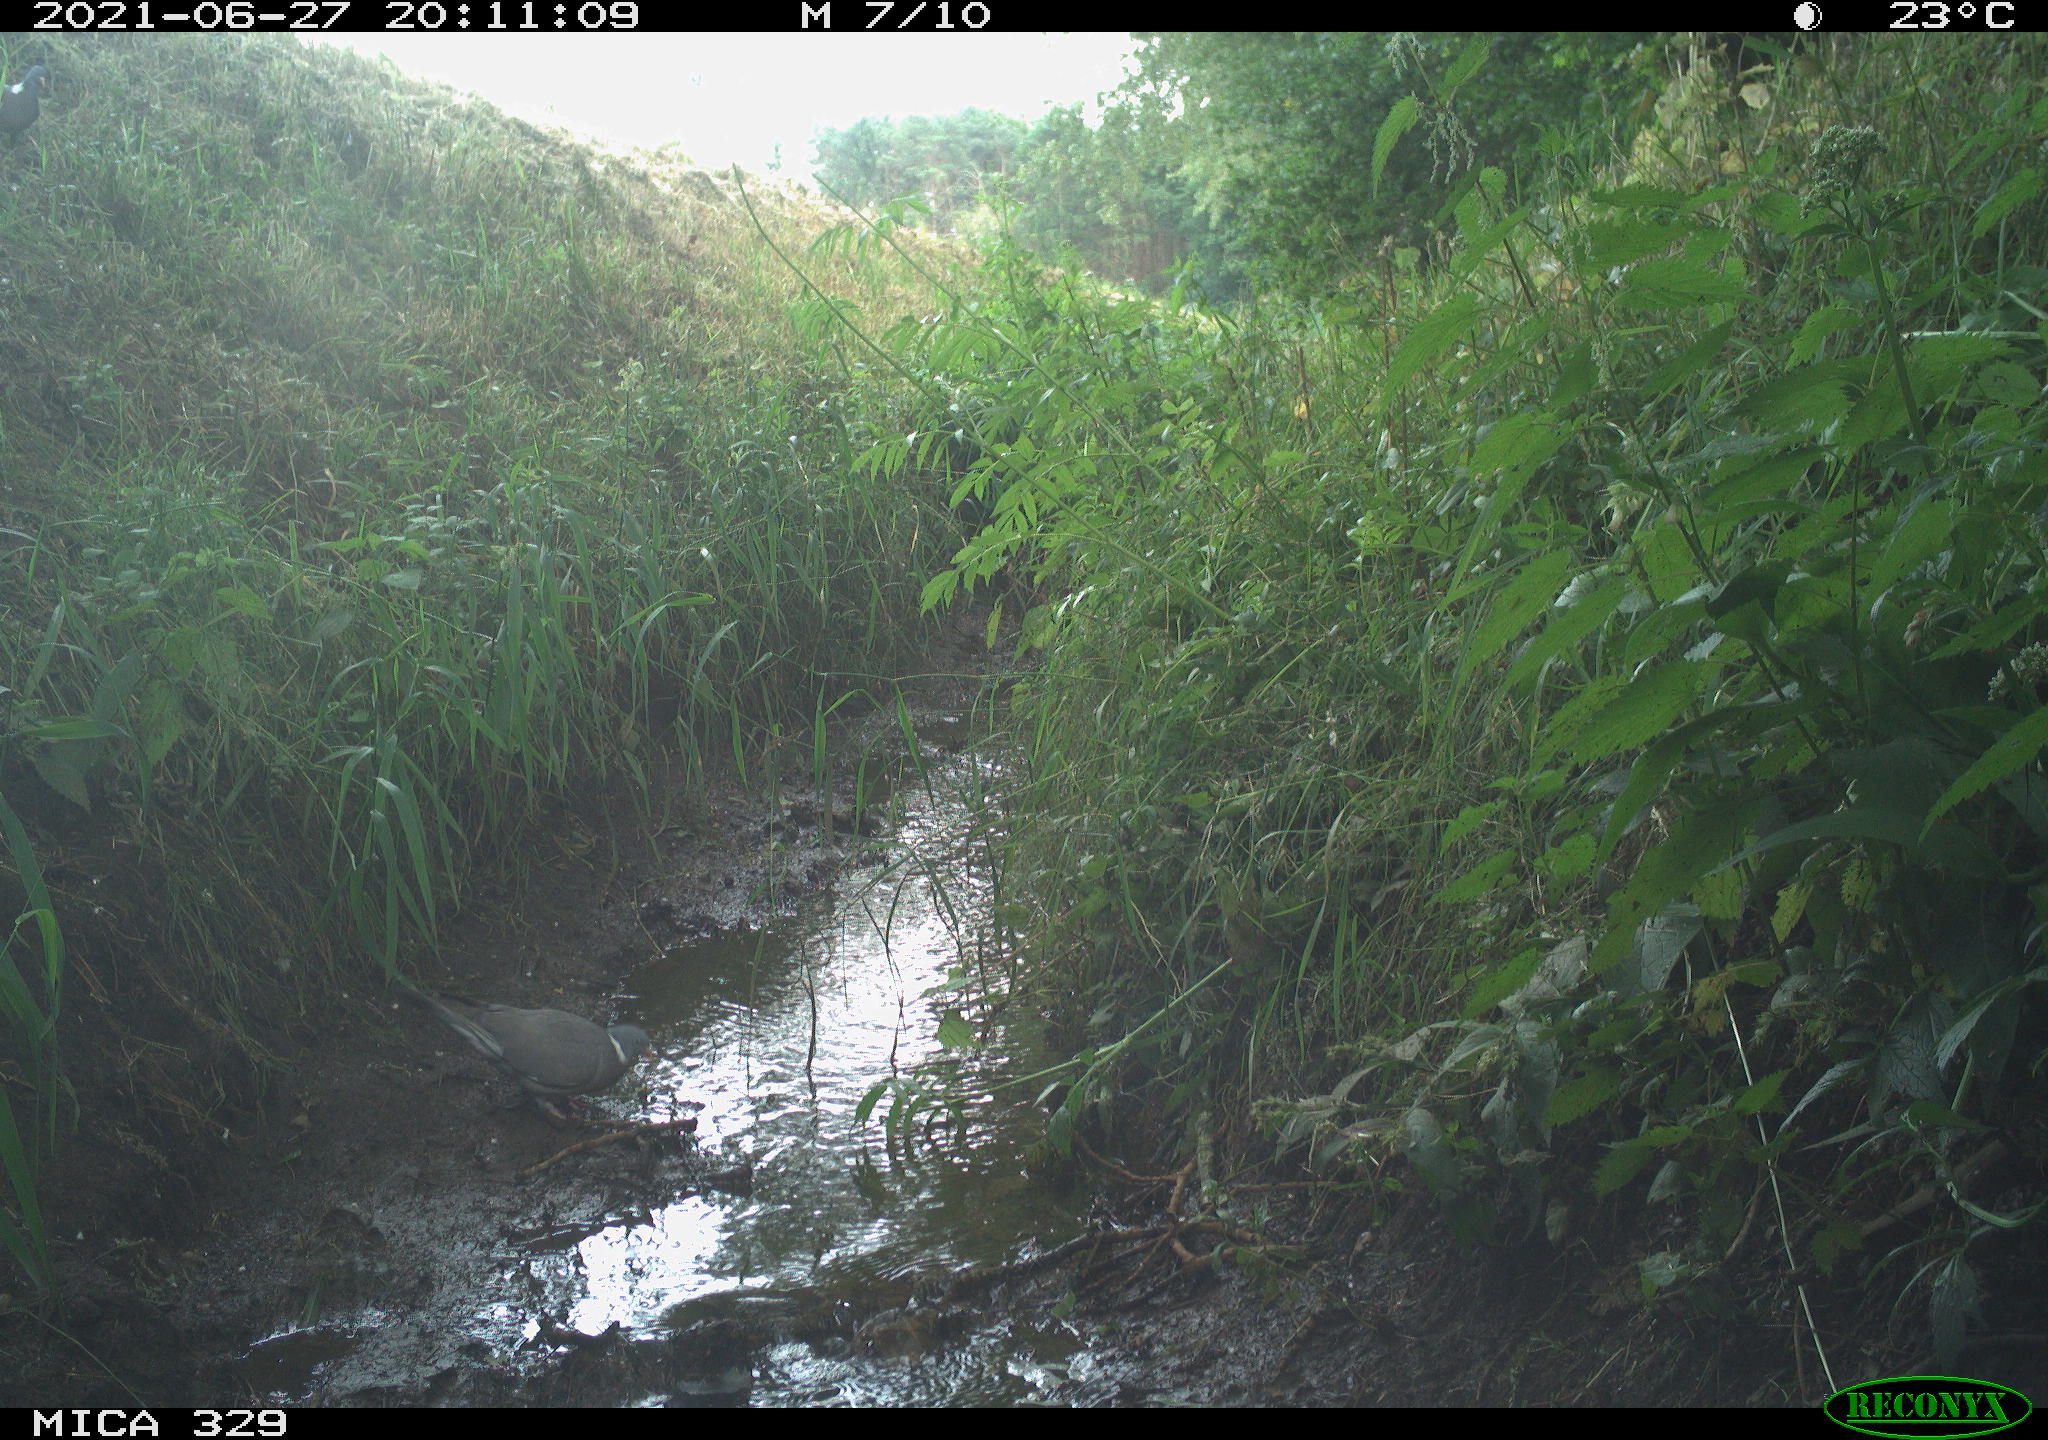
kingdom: Animalia
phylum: Chordata
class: Aves
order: Columbiformes
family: Columbidae
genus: Columba
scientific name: Columba palumbus
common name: Common wood pigeon
